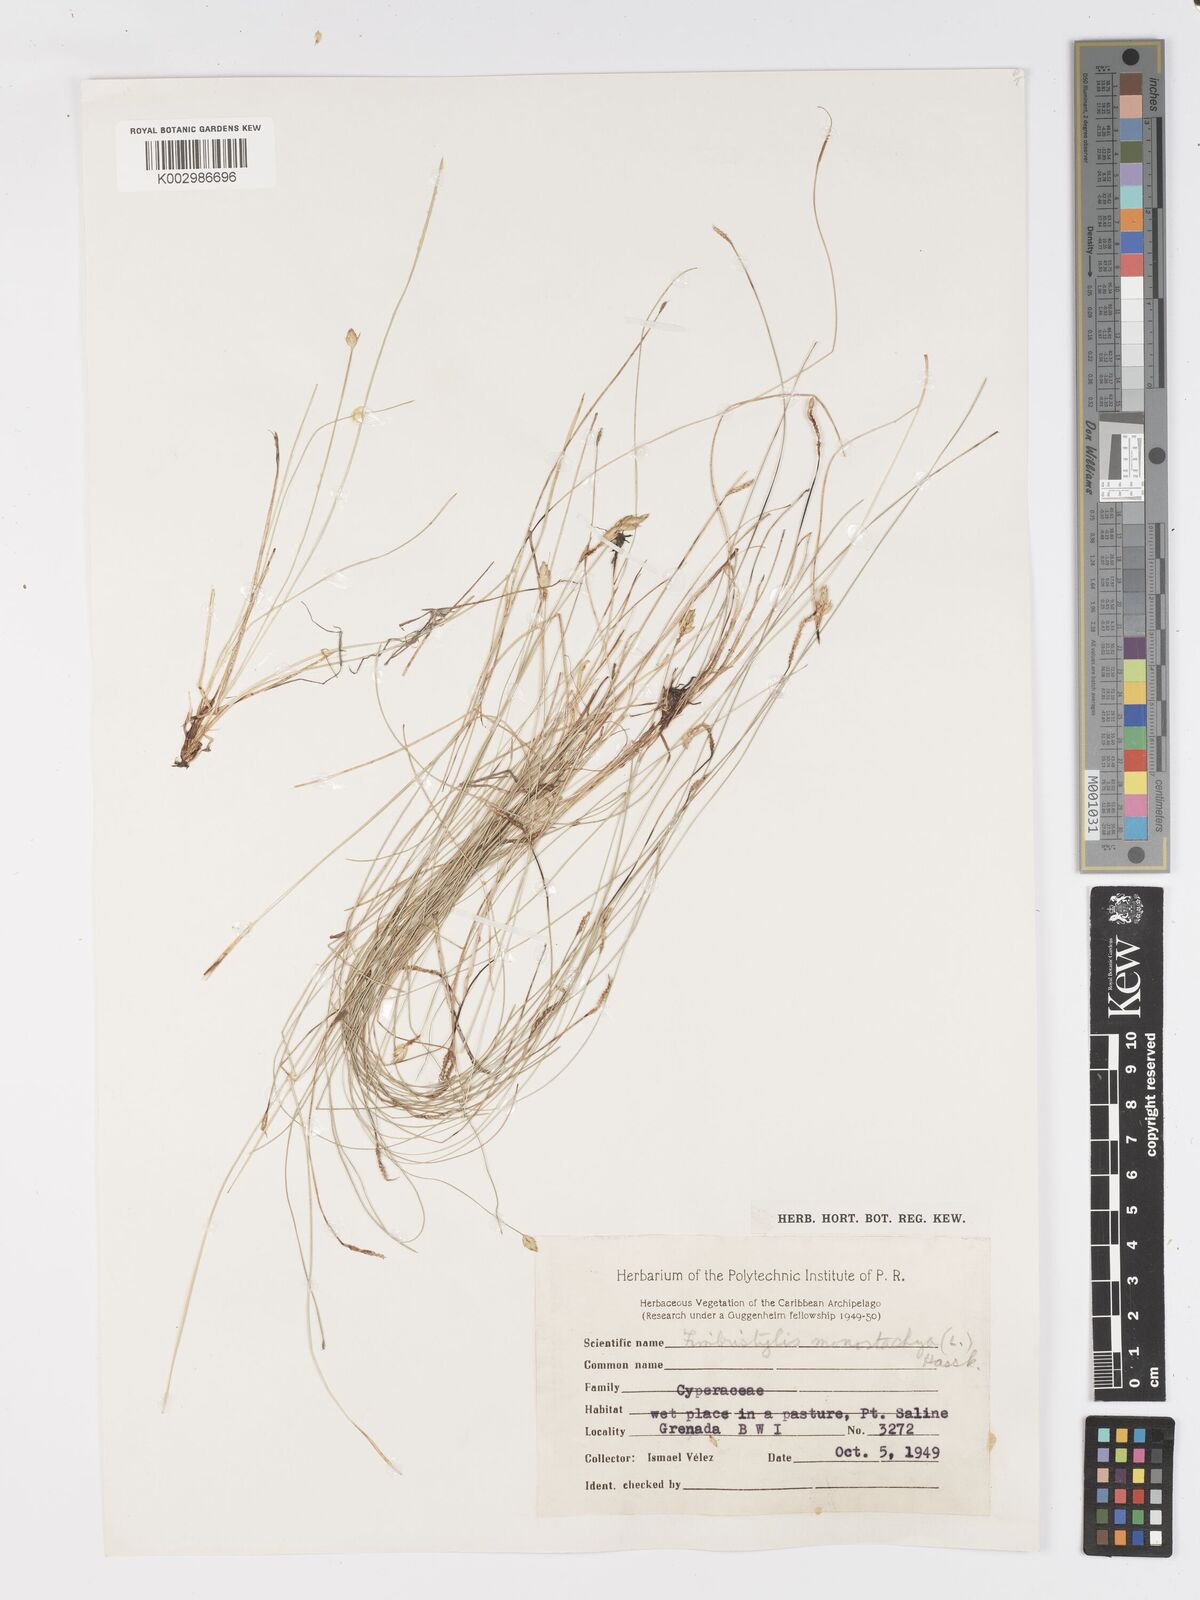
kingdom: Plantae
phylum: Tracheophyta
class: Liliopsida
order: Poales
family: Cyperaceae
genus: Abildgaardia
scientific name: Abildgaardia ovata
